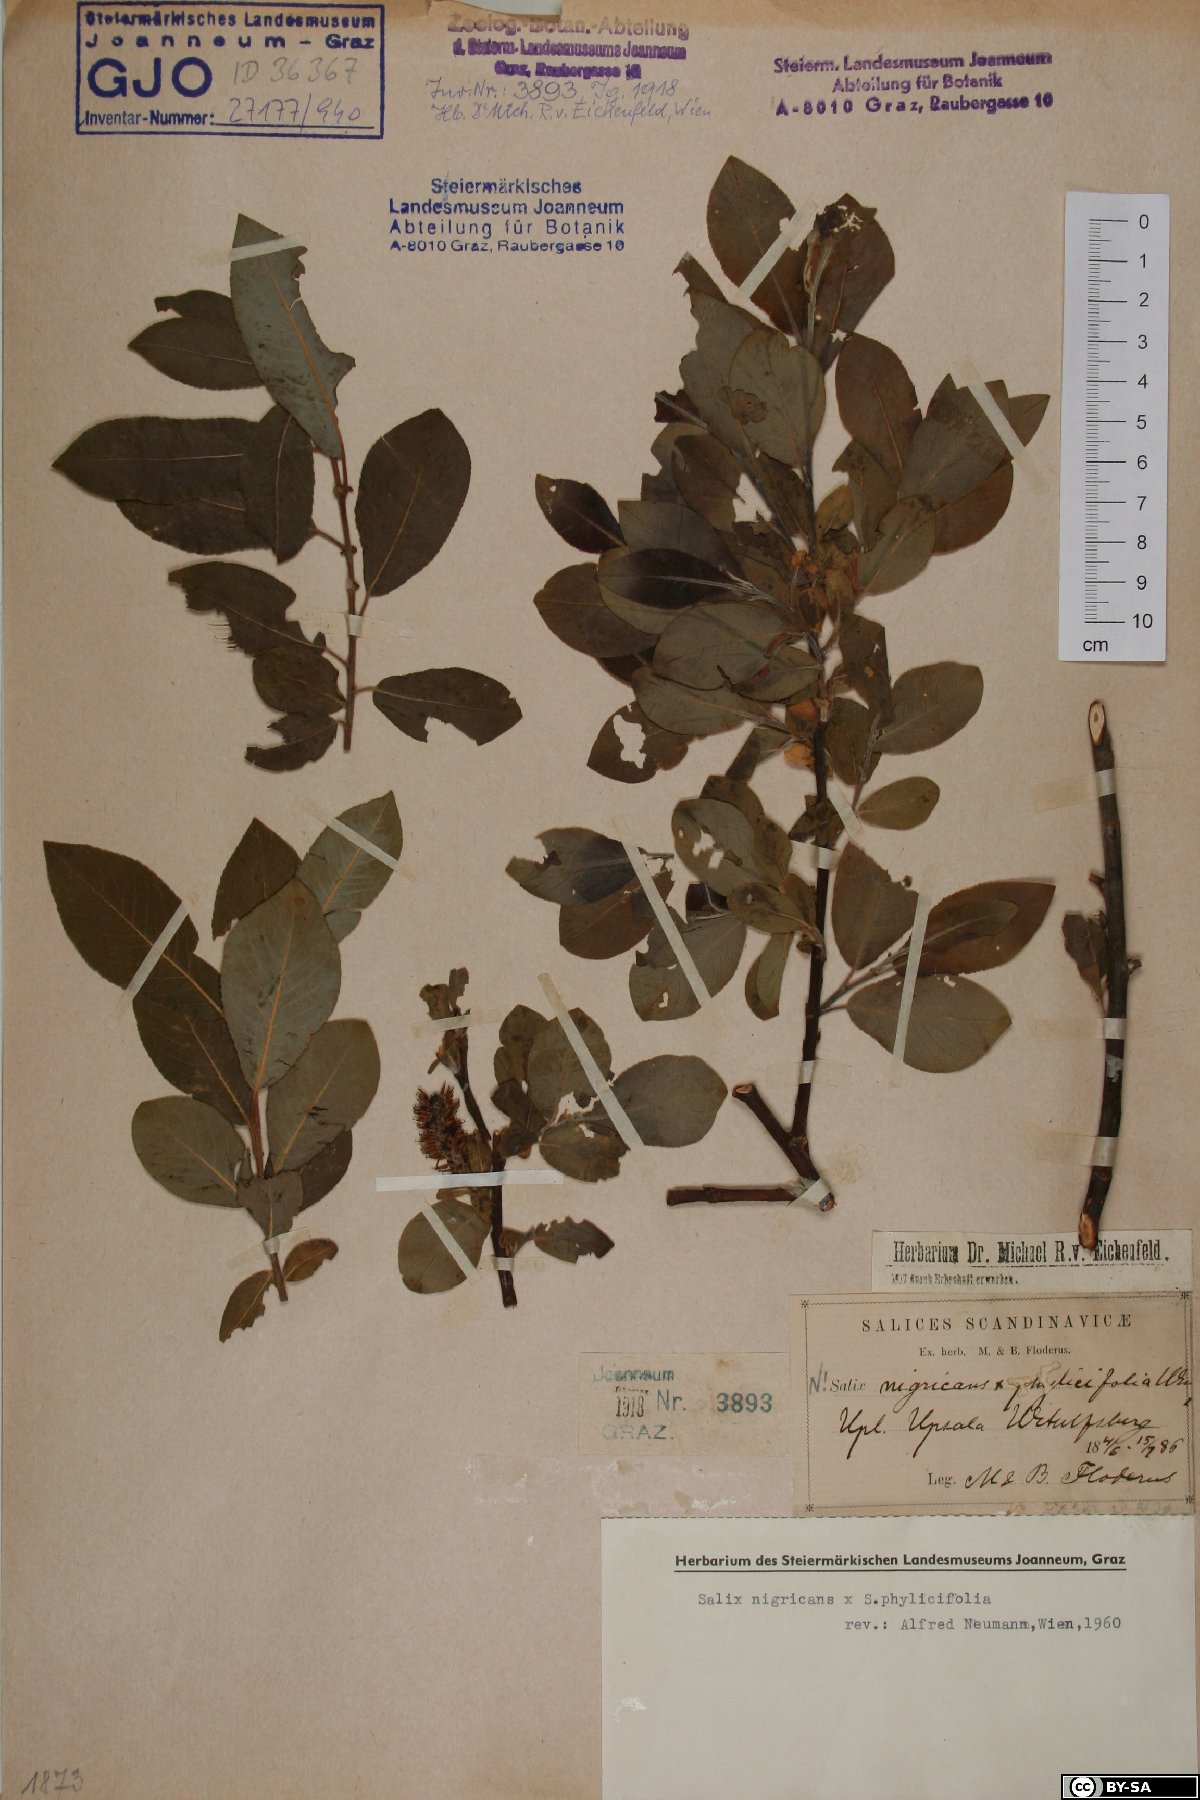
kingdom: Plantae
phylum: Tracheophyta
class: Magnoliopsida
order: Malpighiales
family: Salicaceae
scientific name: Salicaceae
